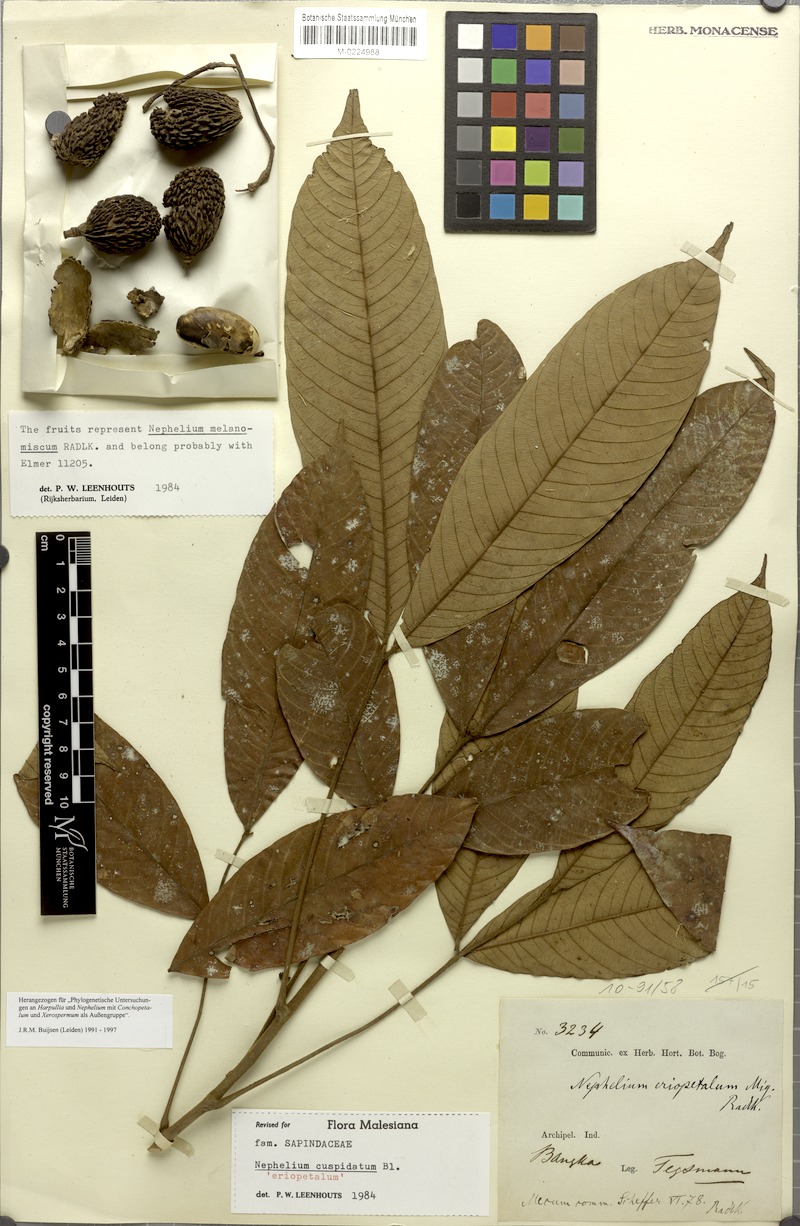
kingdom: Plantae
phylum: Tracheophyta
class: Magnoliopsida
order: Sapindales
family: Sapindaceae
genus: Nephelium
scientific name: Nephelium cuspidatum
